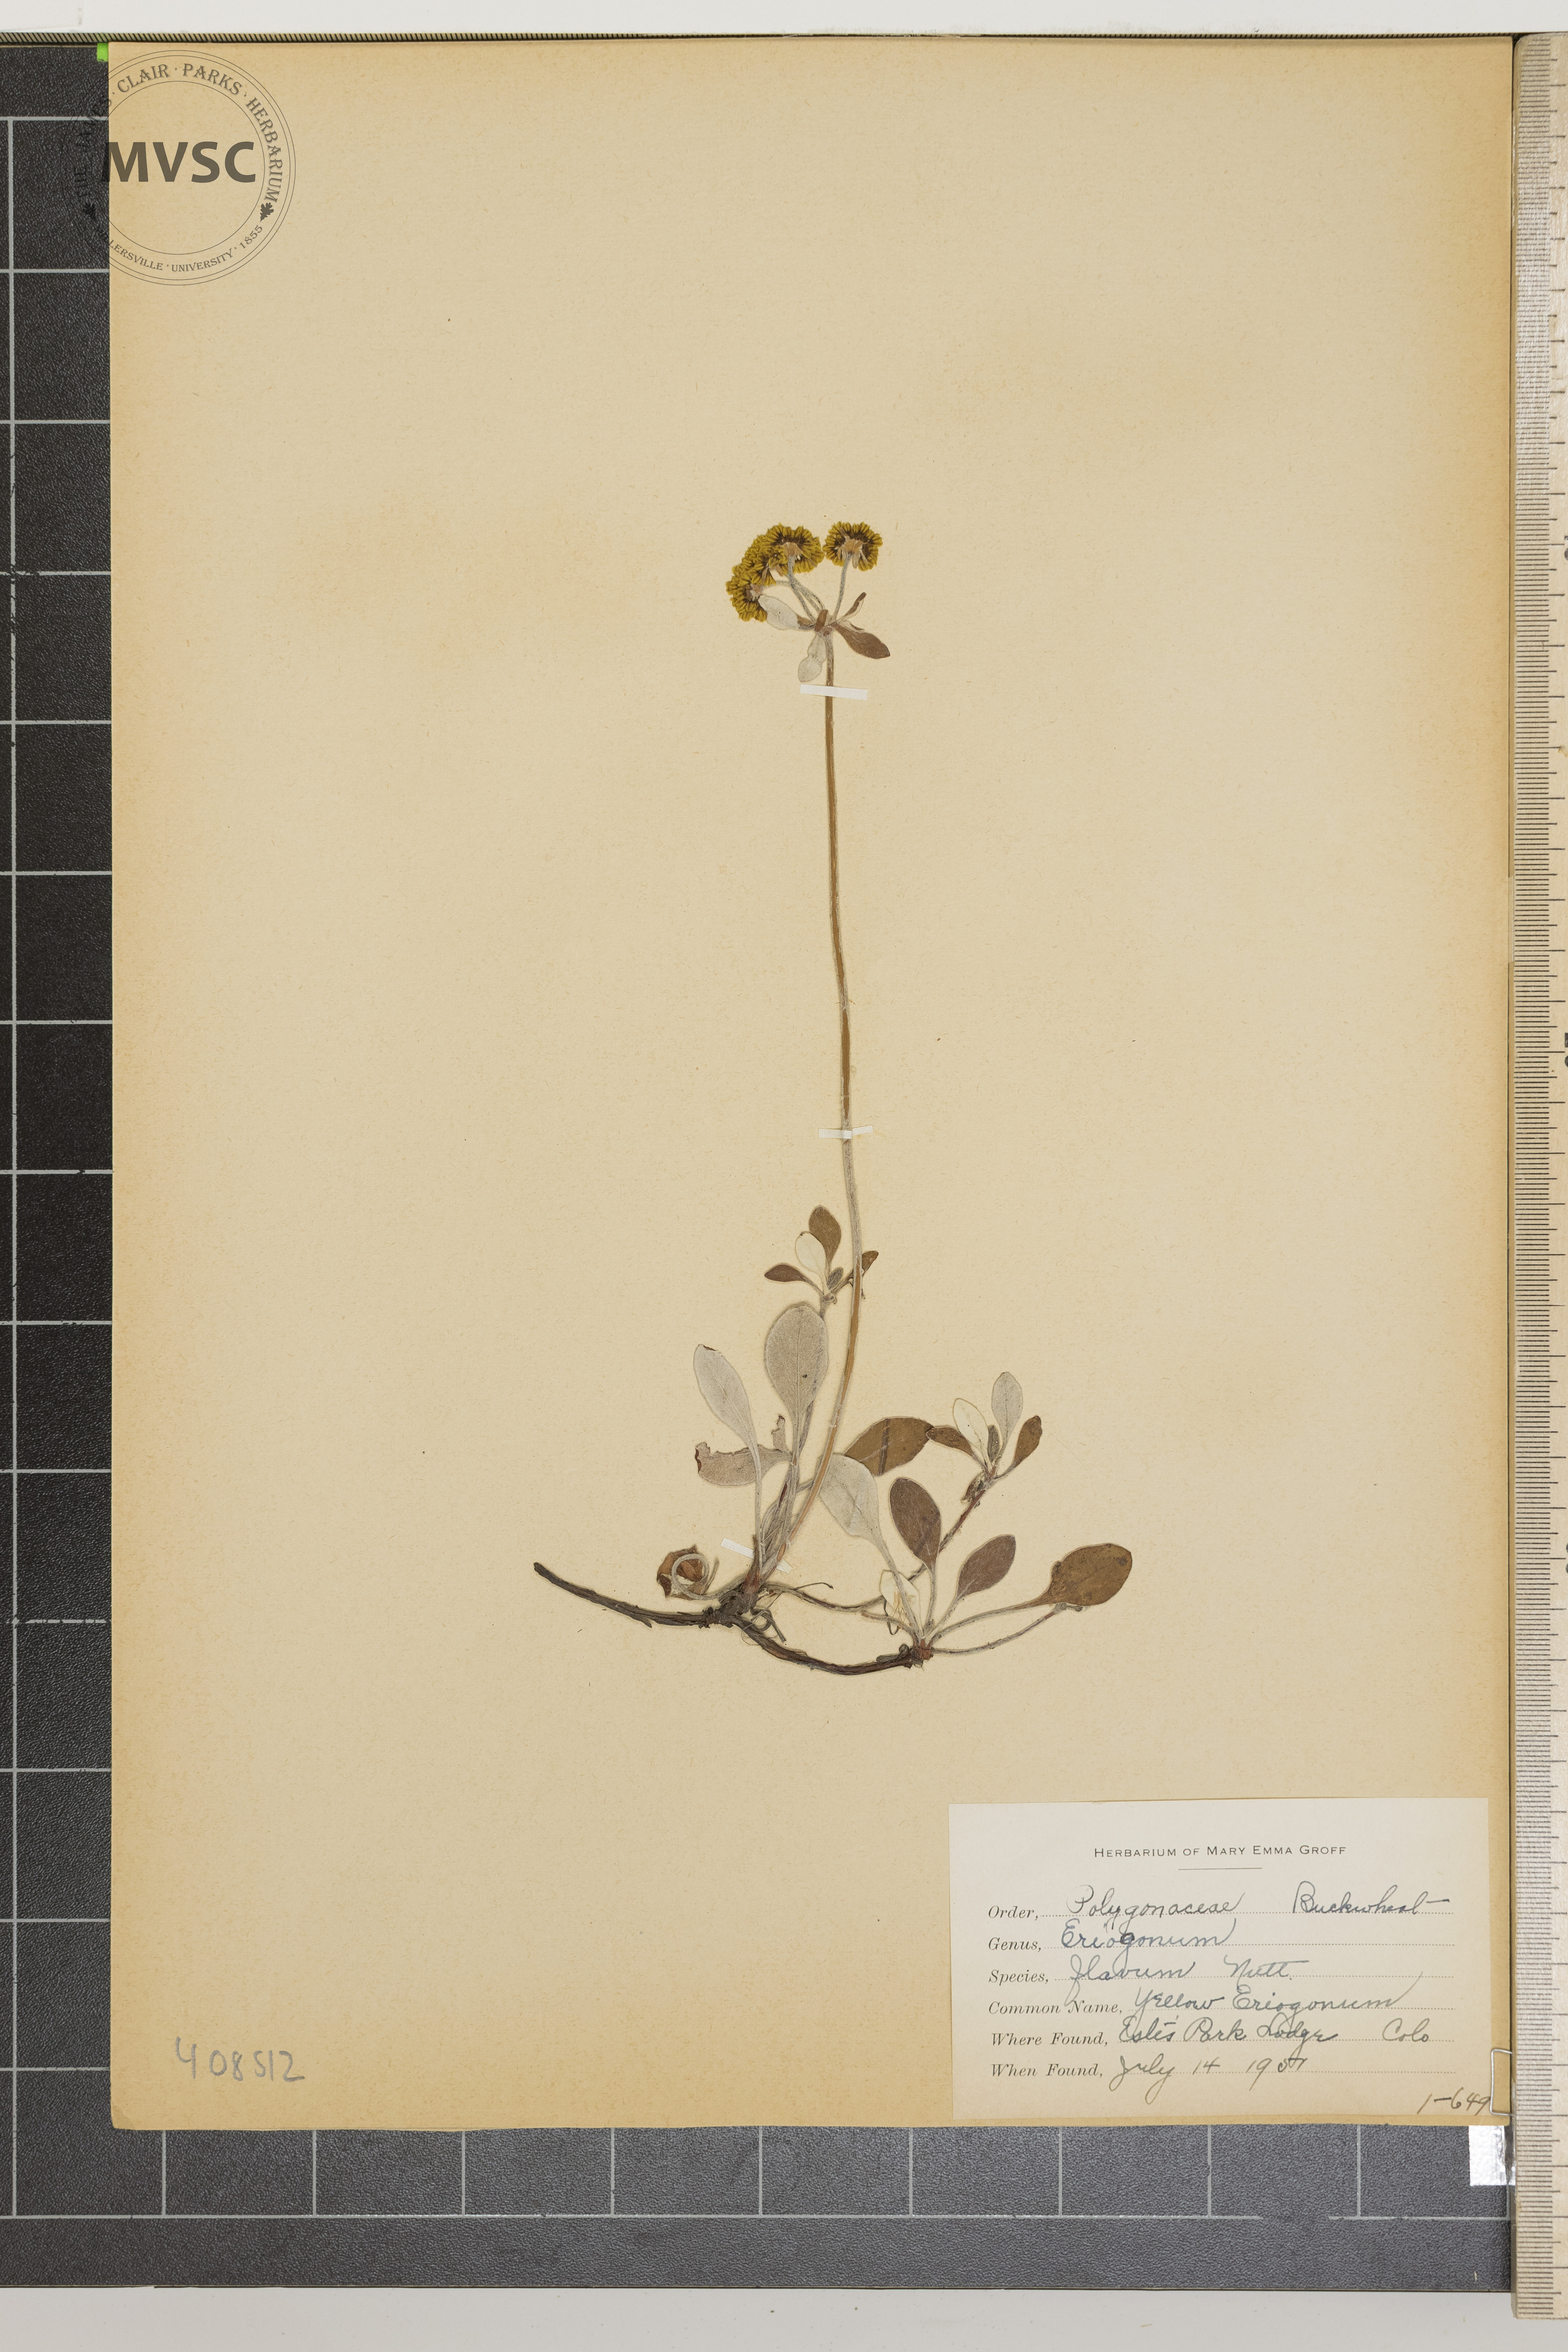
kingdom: Plantae
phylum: Tracheophyta
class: Magnoliopsida
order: Caryophyllales
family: Polygonaceae
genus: Eriogonum
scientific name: Eriogonum flavum
